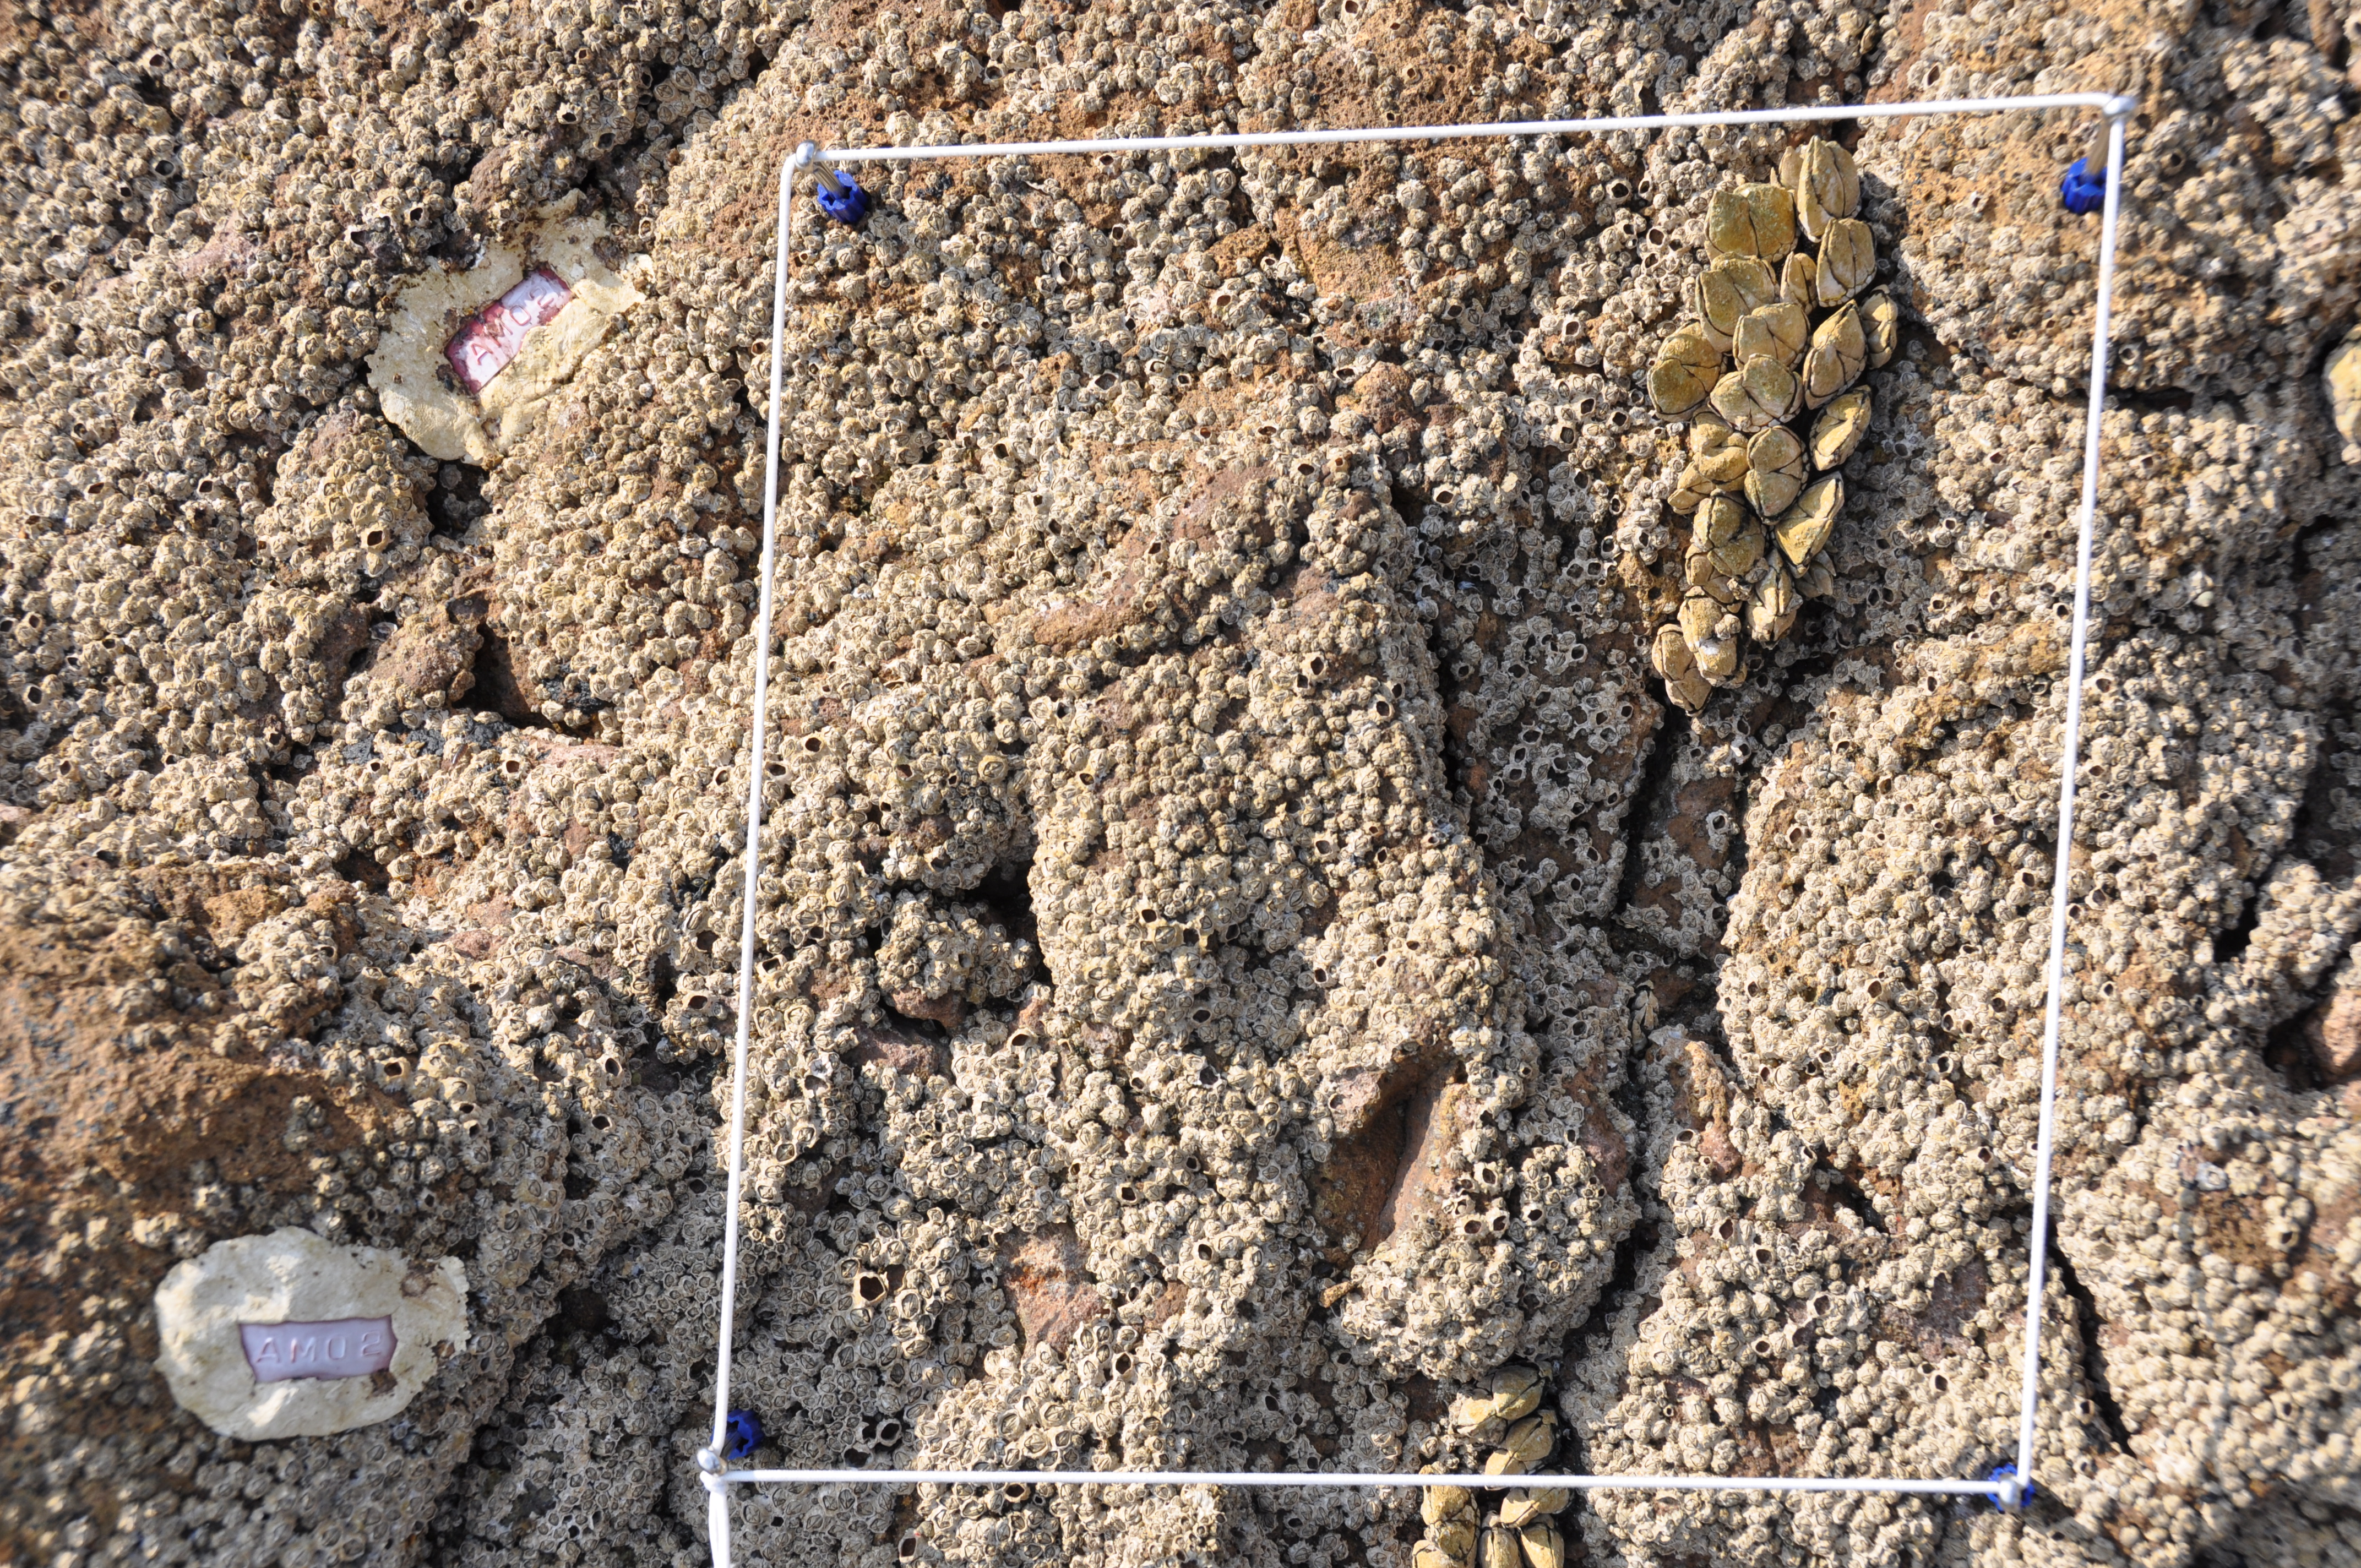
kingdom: Animalia
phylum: Arthropoda
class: Maxillopoda
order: Sessilia
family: Chthamalidae
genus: Chthamalus
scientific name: Chthamalus challengeri
